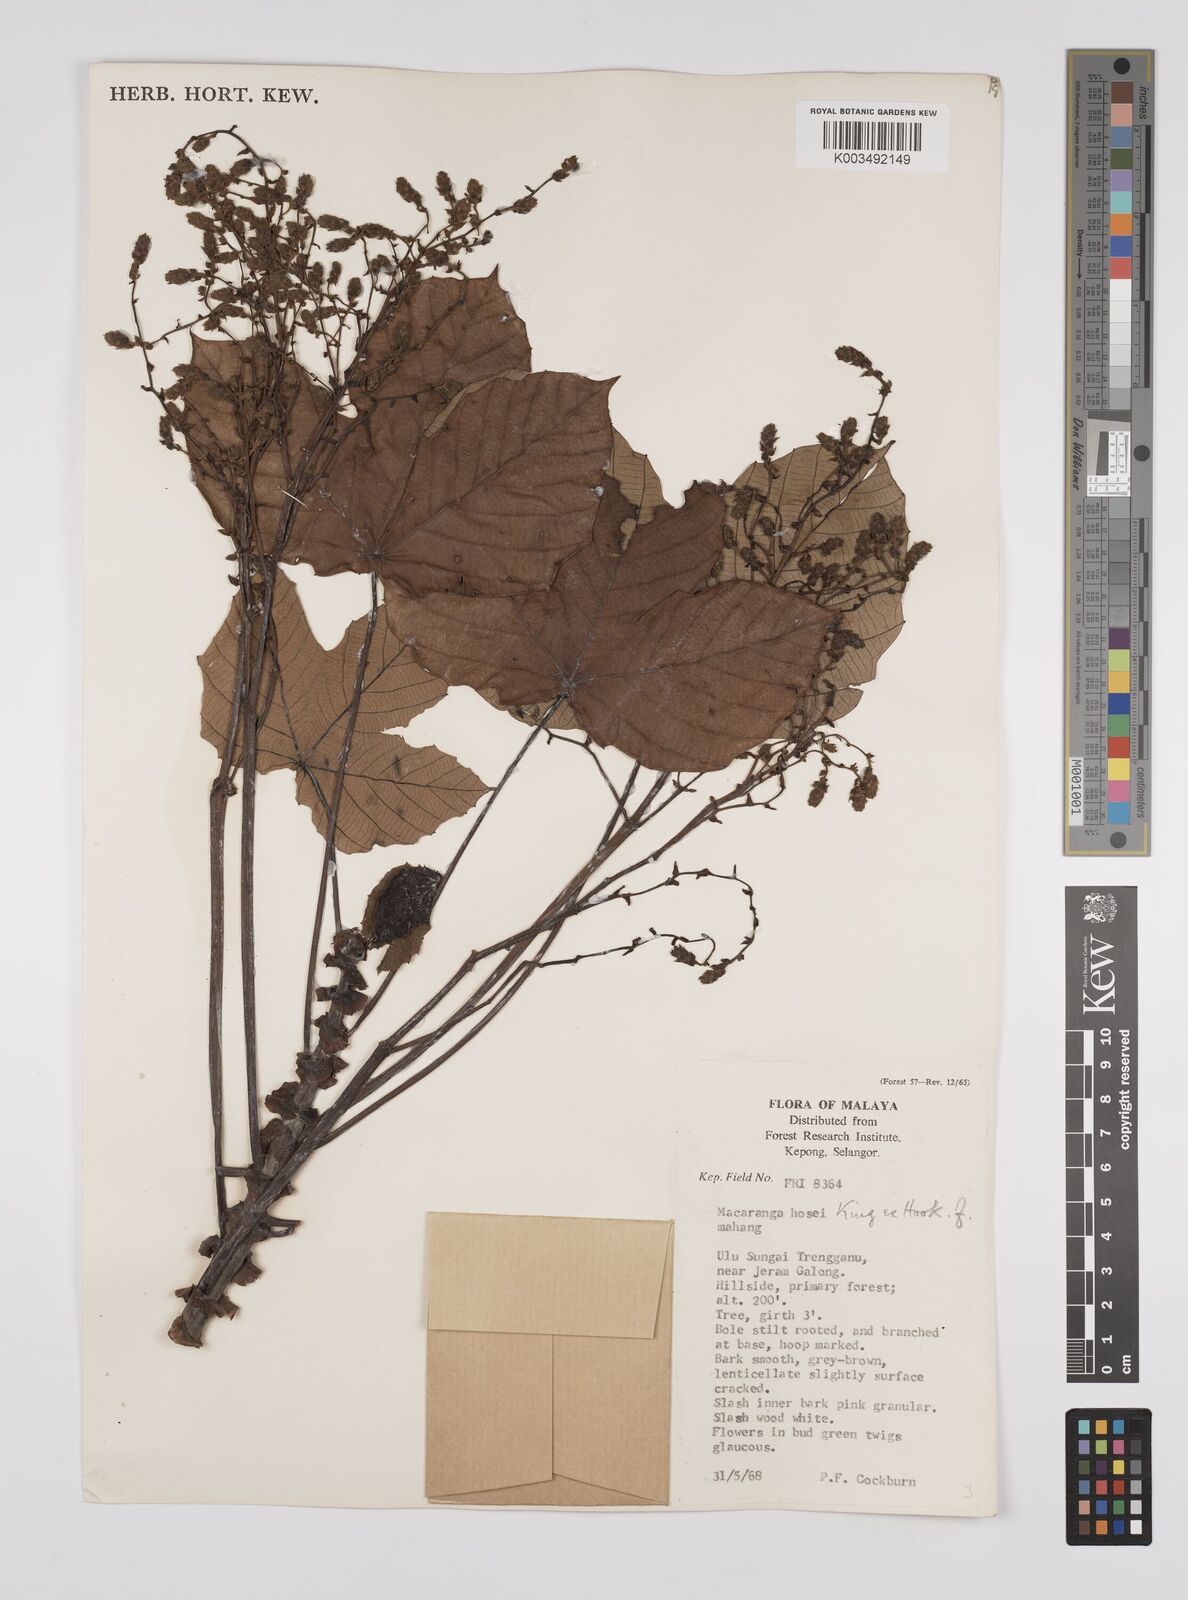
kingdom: Plantae
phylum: Tracheophyta
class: Magnoliopsida
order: Malpighiales
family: Euphorbiaceae
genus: Macaranga
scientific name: Macaranga hosei
